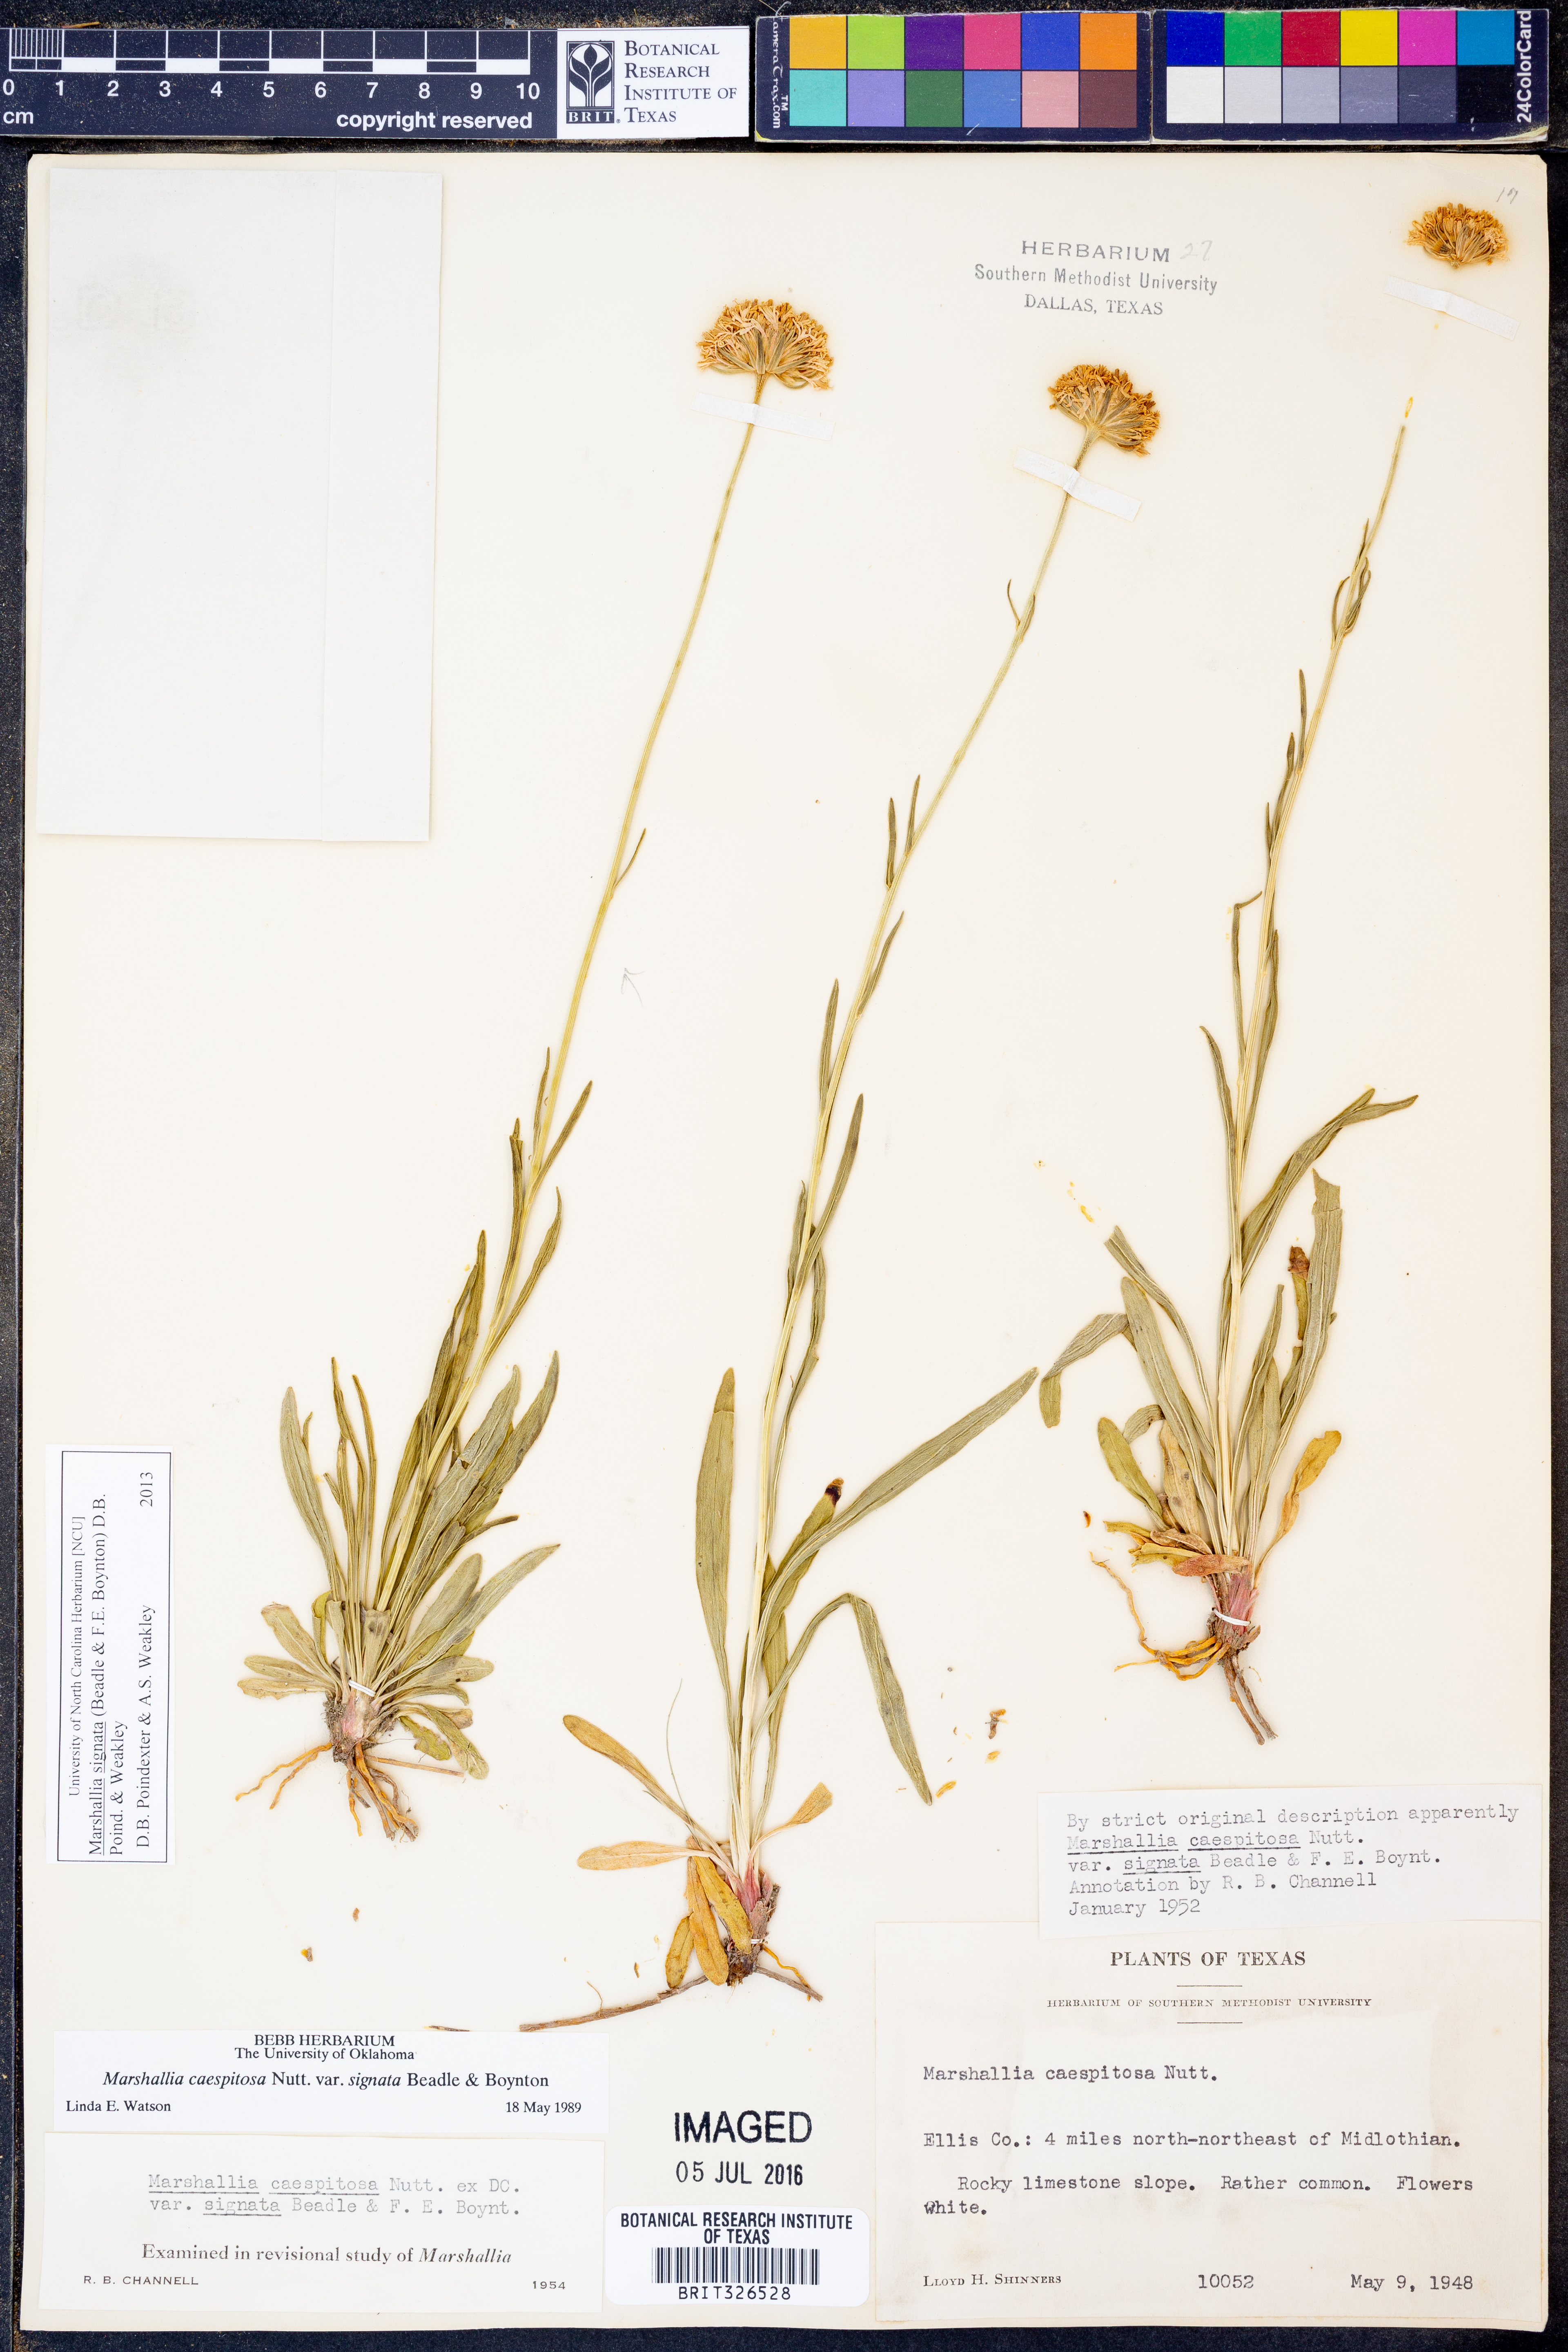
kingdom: Plantae
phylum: Tracheophyta
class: Magnoliopsida
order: Asterales
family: Asteraceae
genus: Marshallia
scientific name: Marshallia
